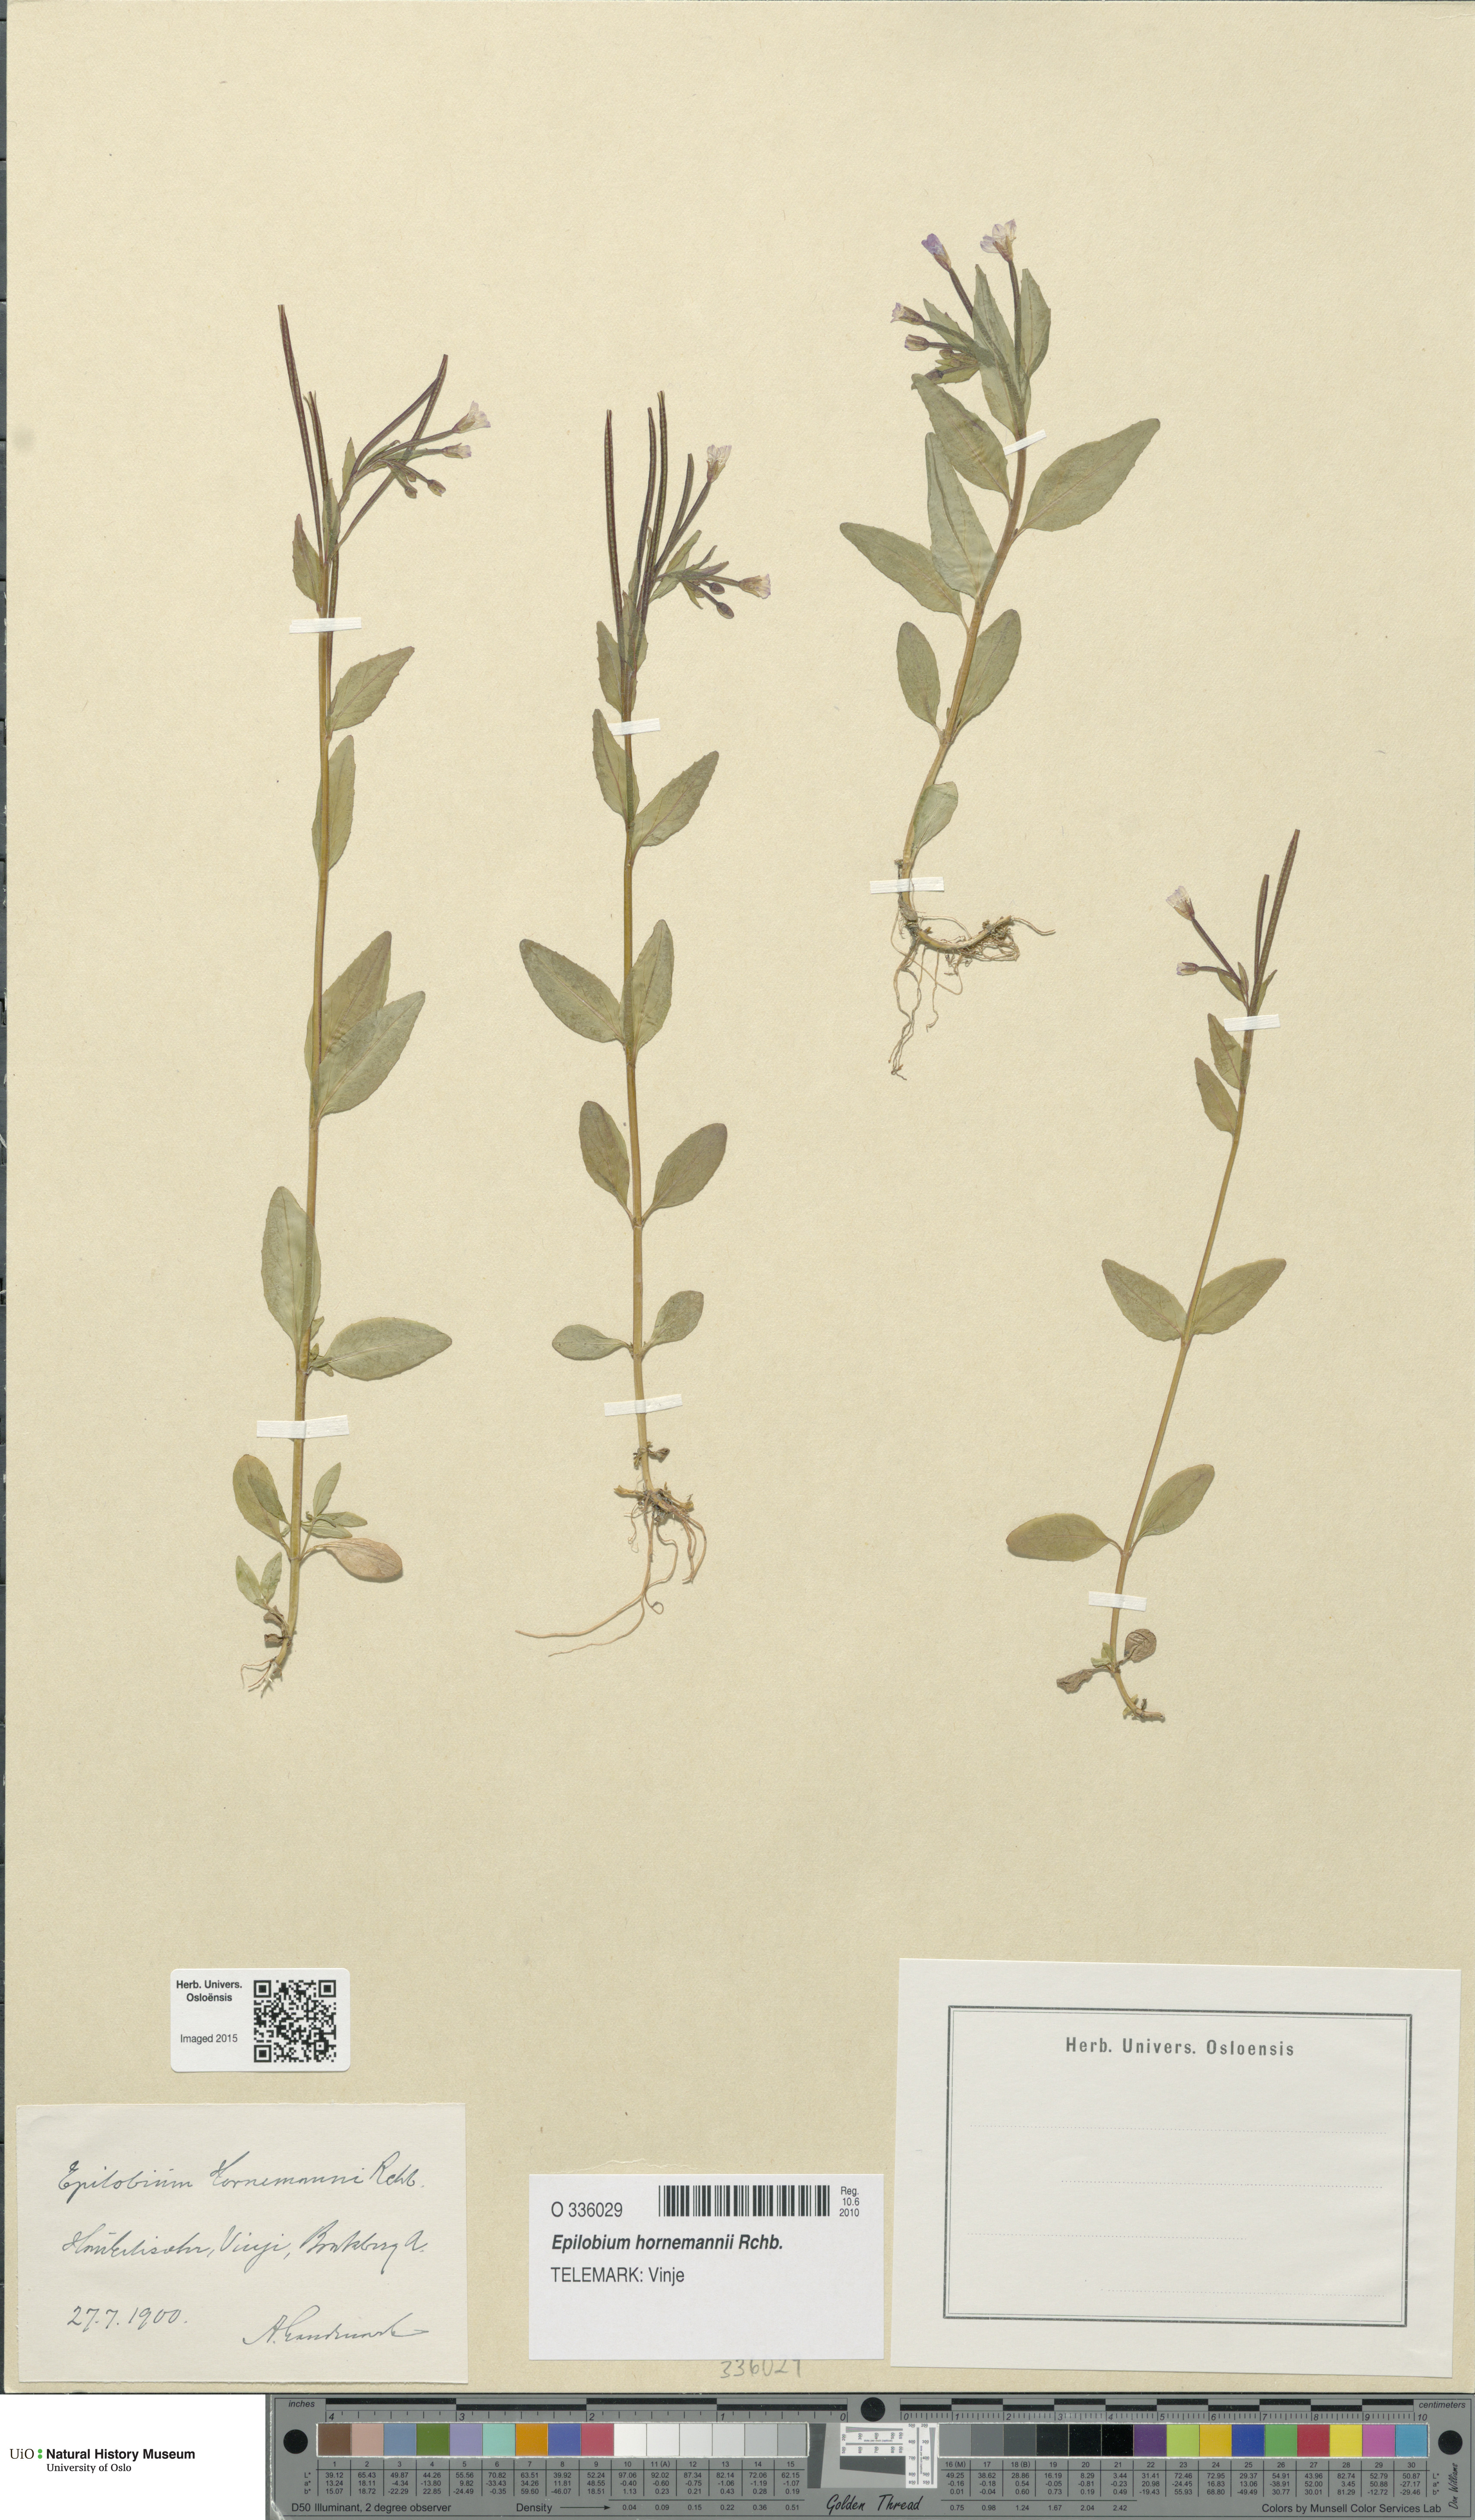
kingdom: Plantae
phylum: Tracheophyta
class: Magnoliopsida
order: Myrtales
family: Onagraceae
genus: Epilobium
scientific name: Epilobium hornemannii
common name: Hornemann's willowherb
